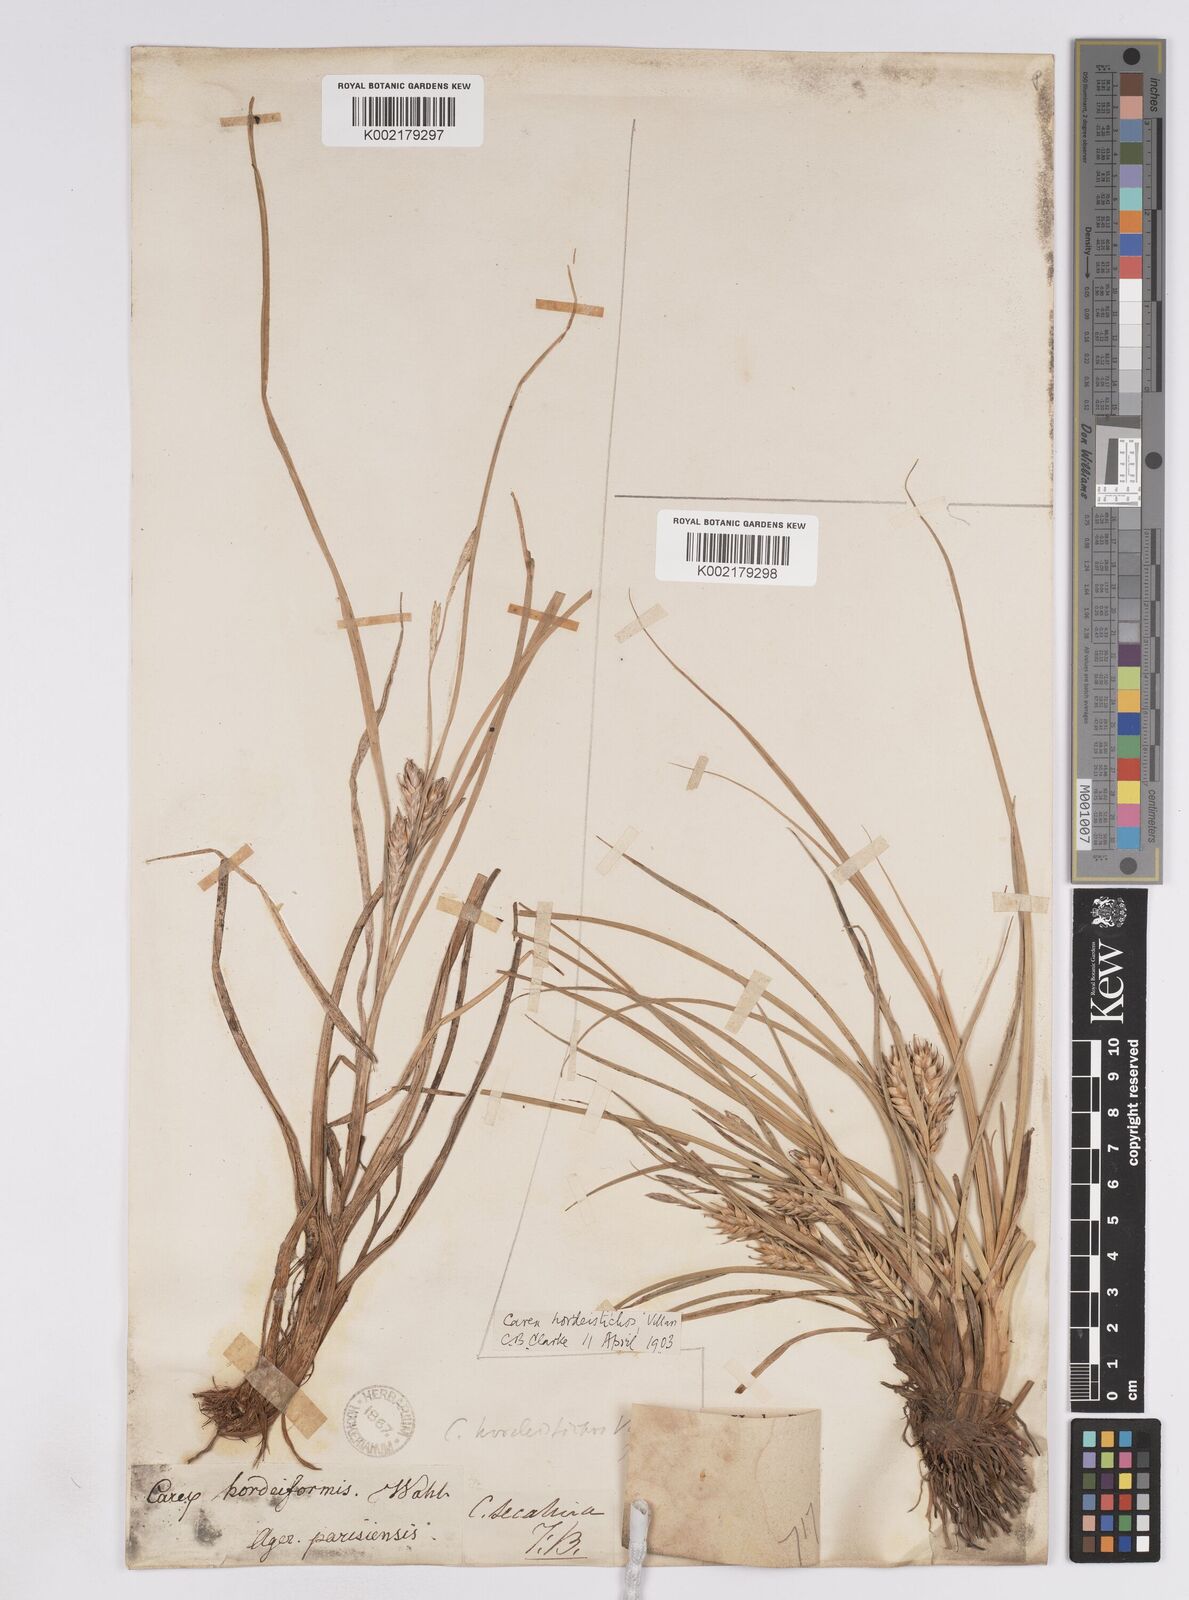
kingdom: Plantae
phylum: Tracheophyta
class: Liliopsida
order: Poales
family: Cyperaceae
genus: Carex
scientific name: Carex hordeistichos
